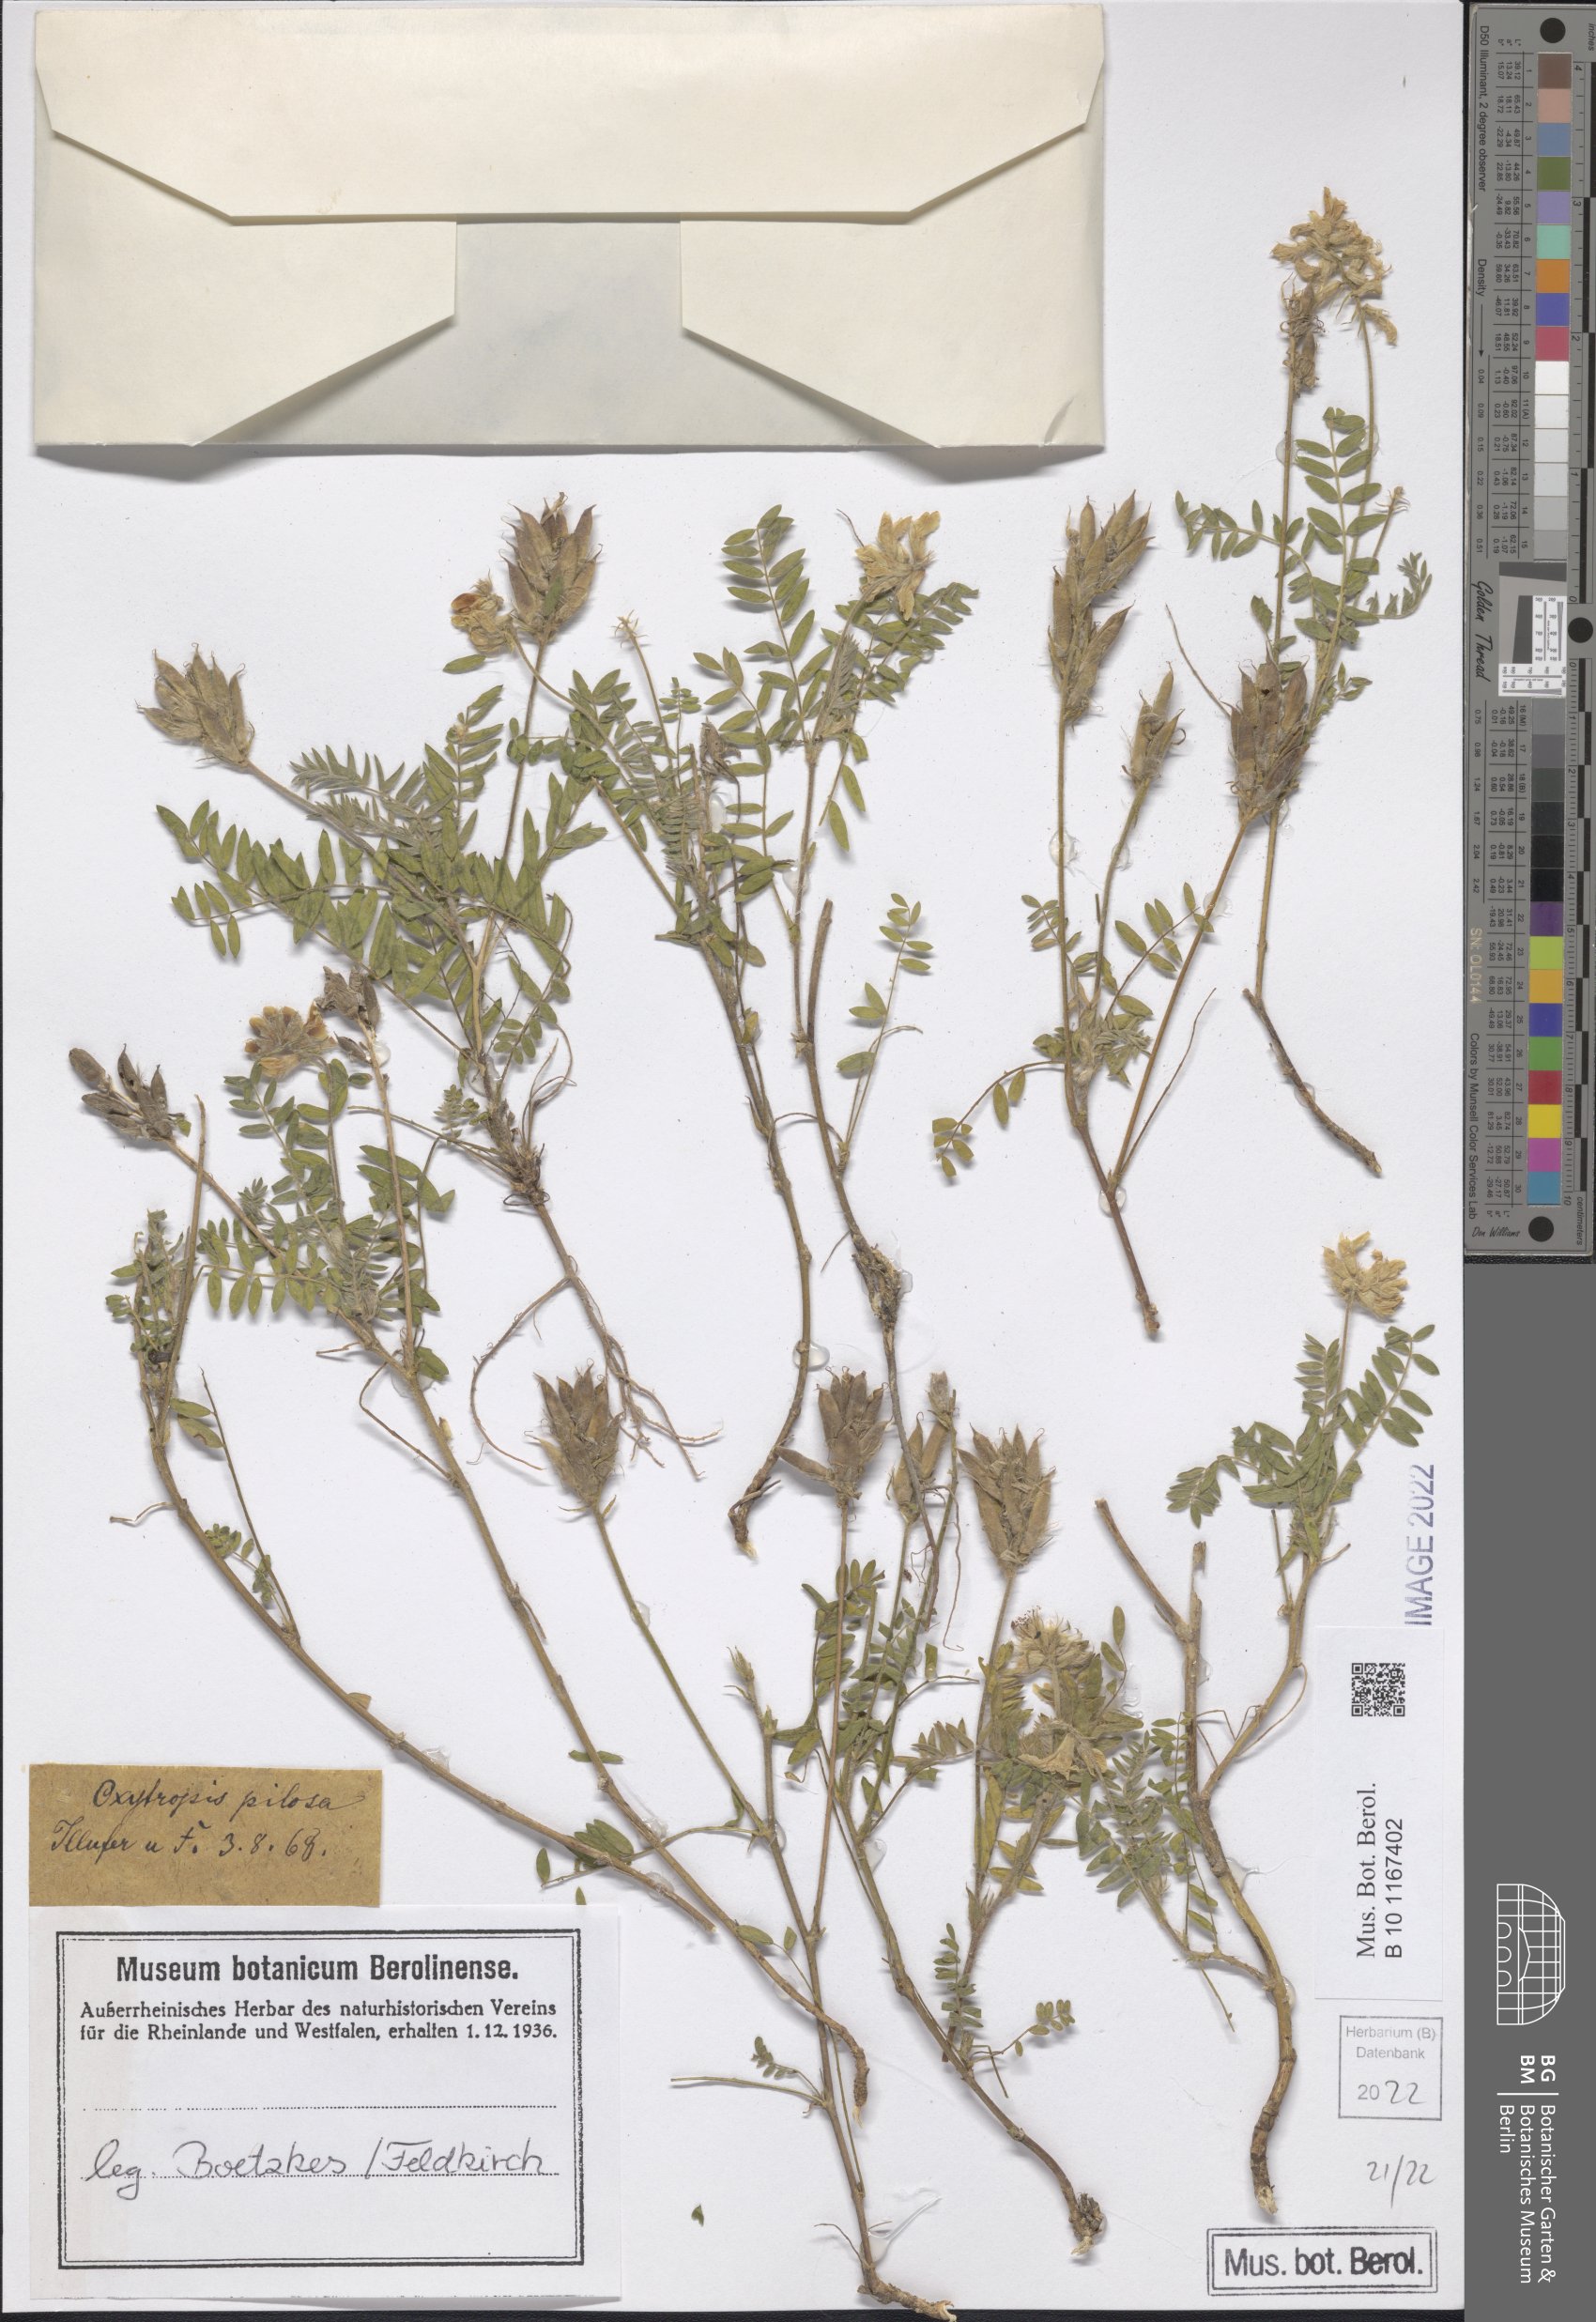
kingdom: Plantae
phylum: Tracheophyta
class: Magnoliopsida
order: Fabales
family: Fabaceae
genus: Oxytropis
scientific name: Oxytropis pilosa
